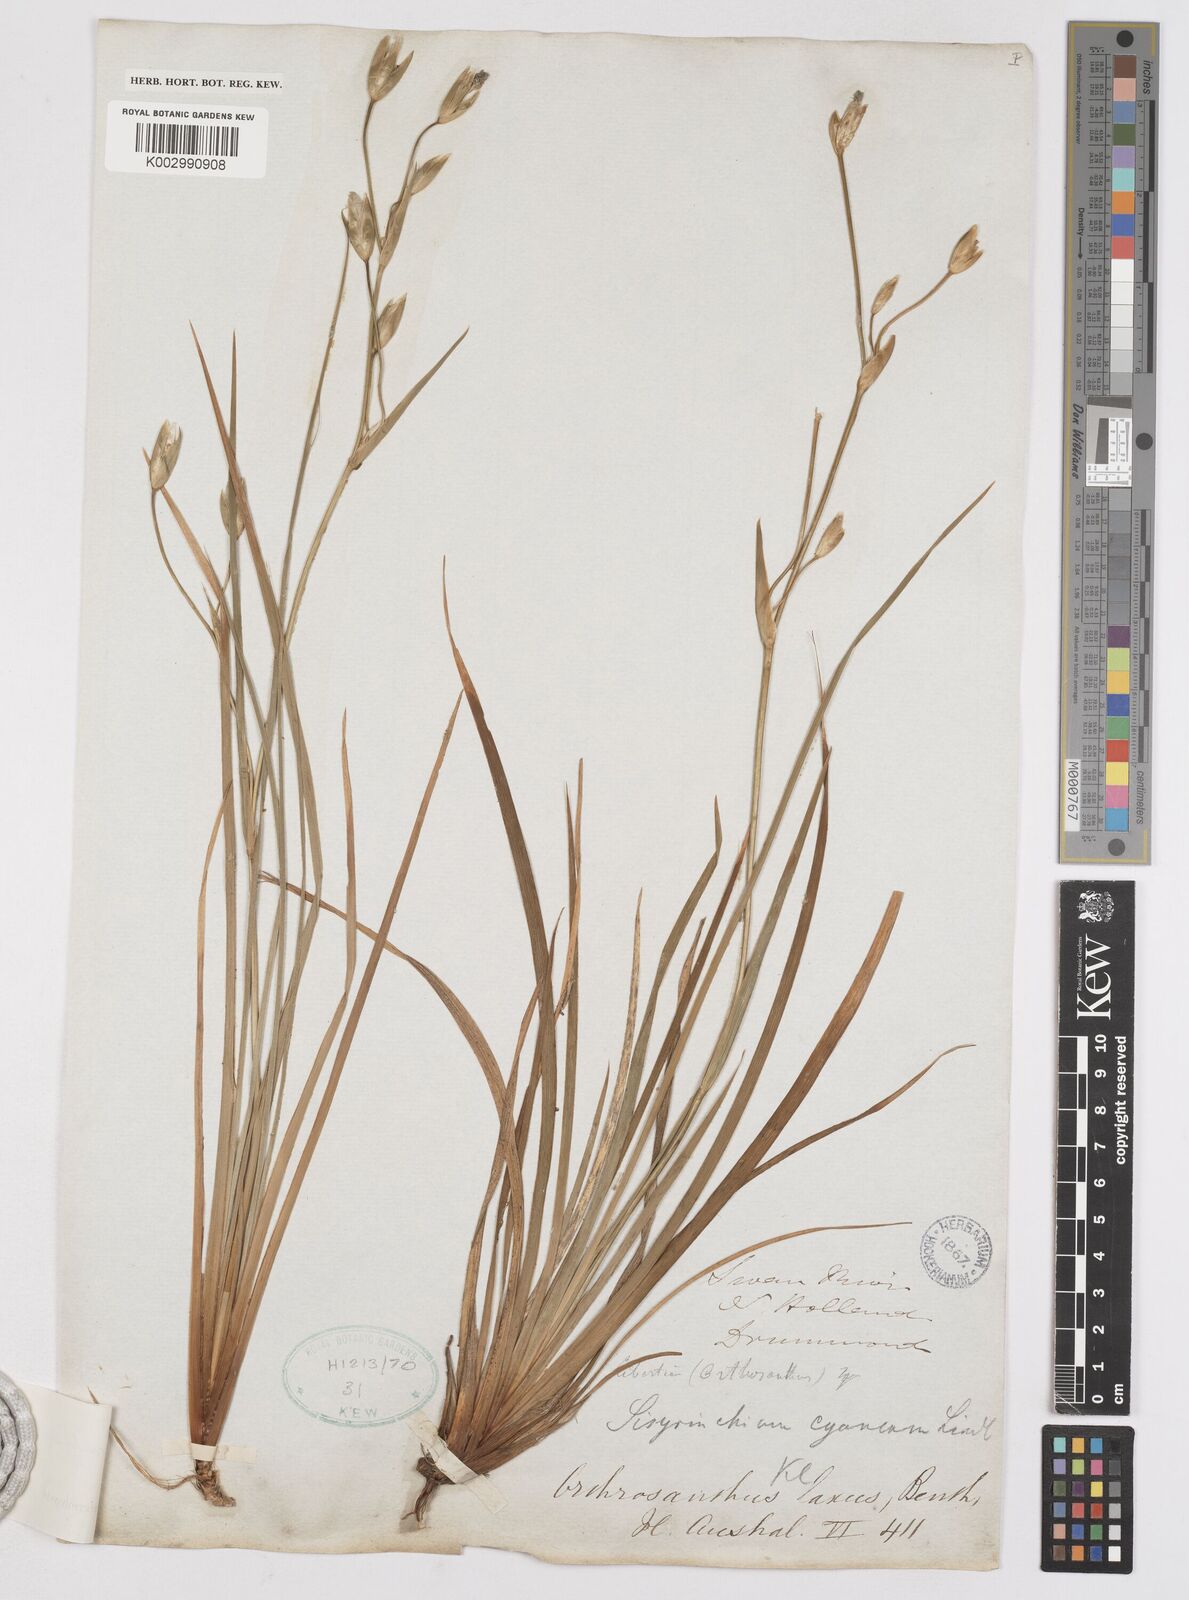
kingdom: Plantae
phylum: Tracheophyta
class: Liliopsida
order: Asparagales
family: Iridaceae
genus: Orthrosanthus
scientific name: Orthrosanthus laxus
